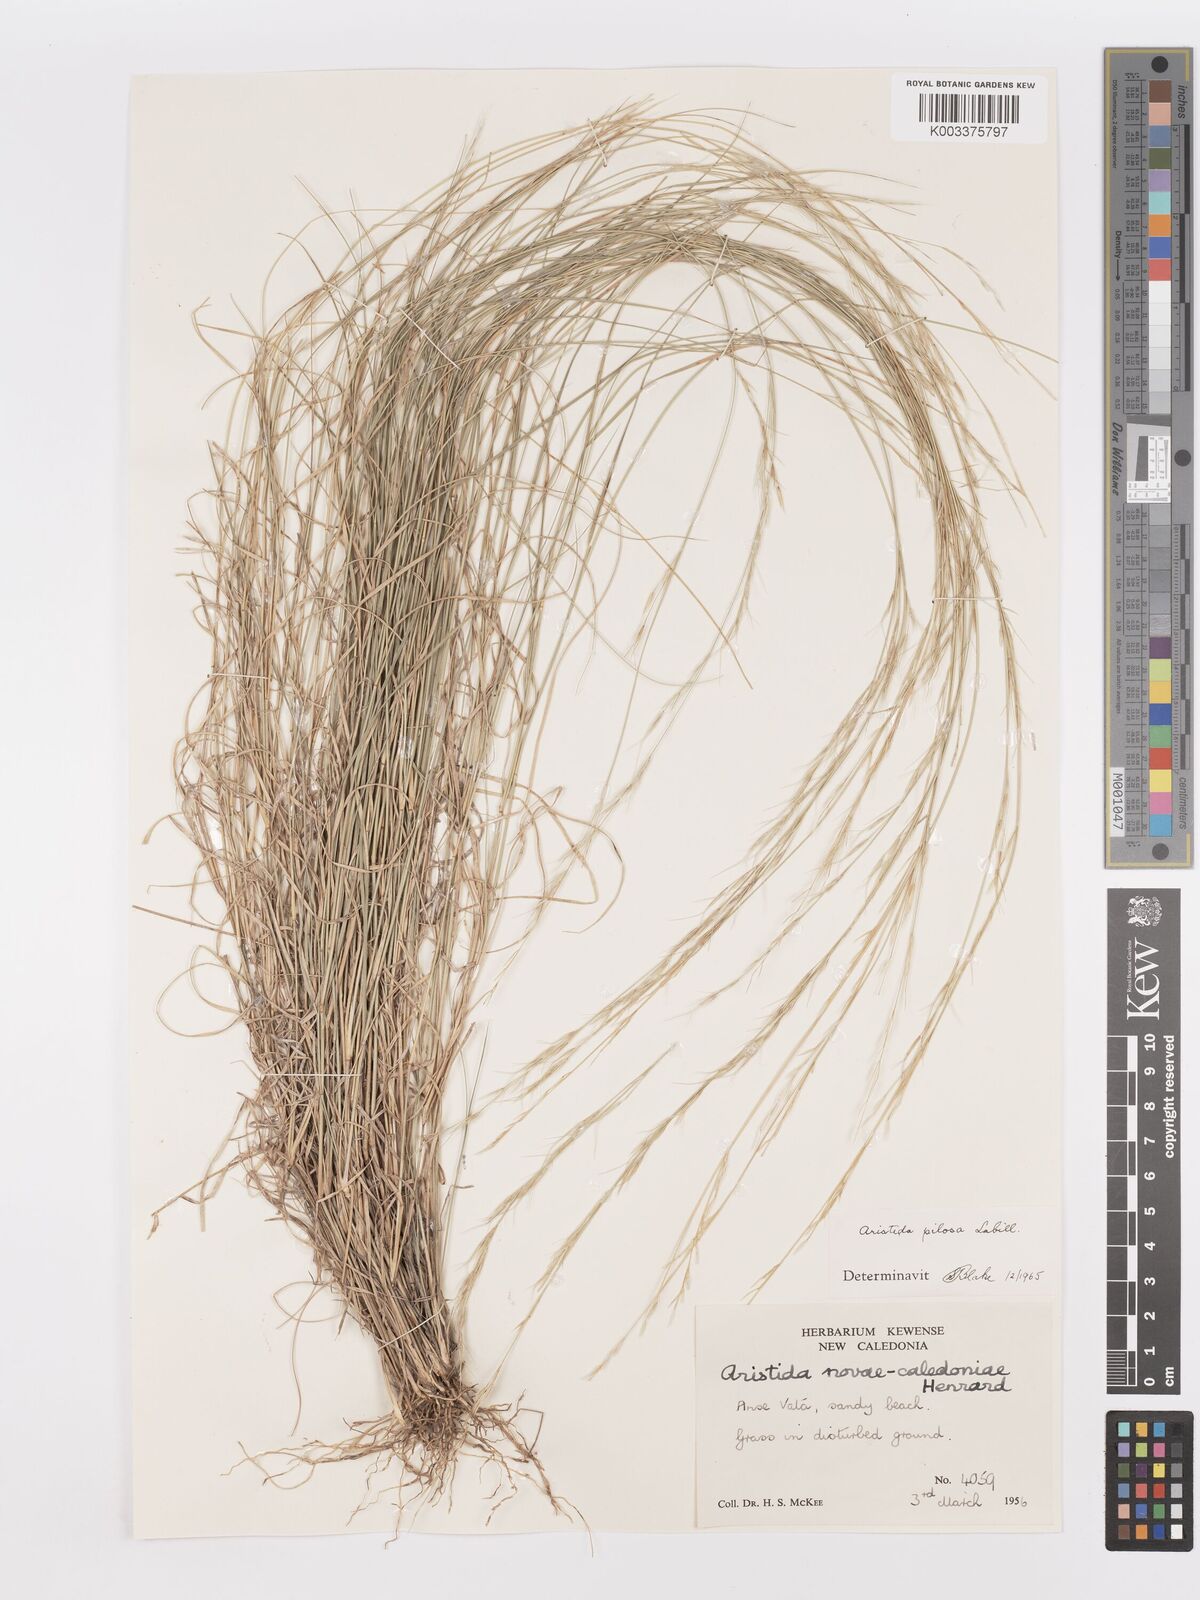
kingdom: Plantae
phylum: Tracheophyta
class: Liliopsida
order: Poales
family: Poaceae
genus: Aristida
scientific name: Aristida pilosa
